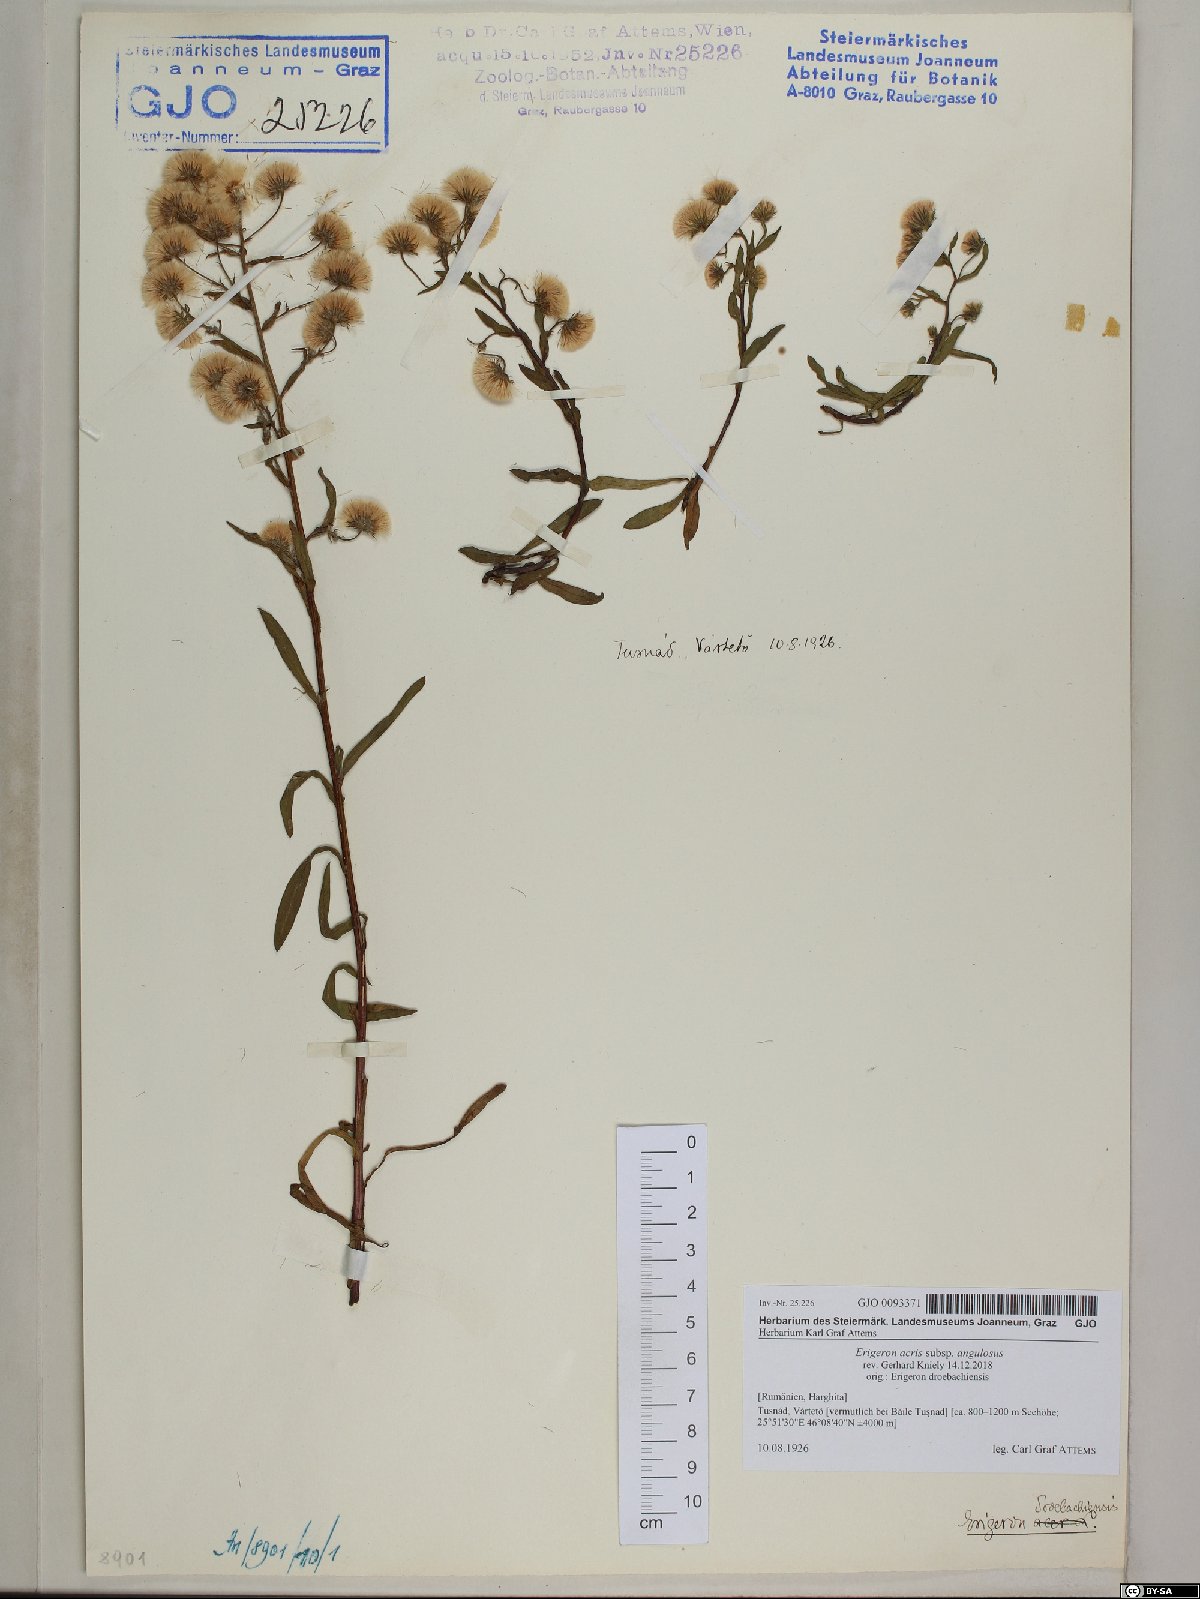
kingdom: Plantae
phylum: Tracheophyta
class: Magnoliopsida
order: Asterales
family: Asteraceae
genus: Erigeron
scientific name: Erigeron angulosus
